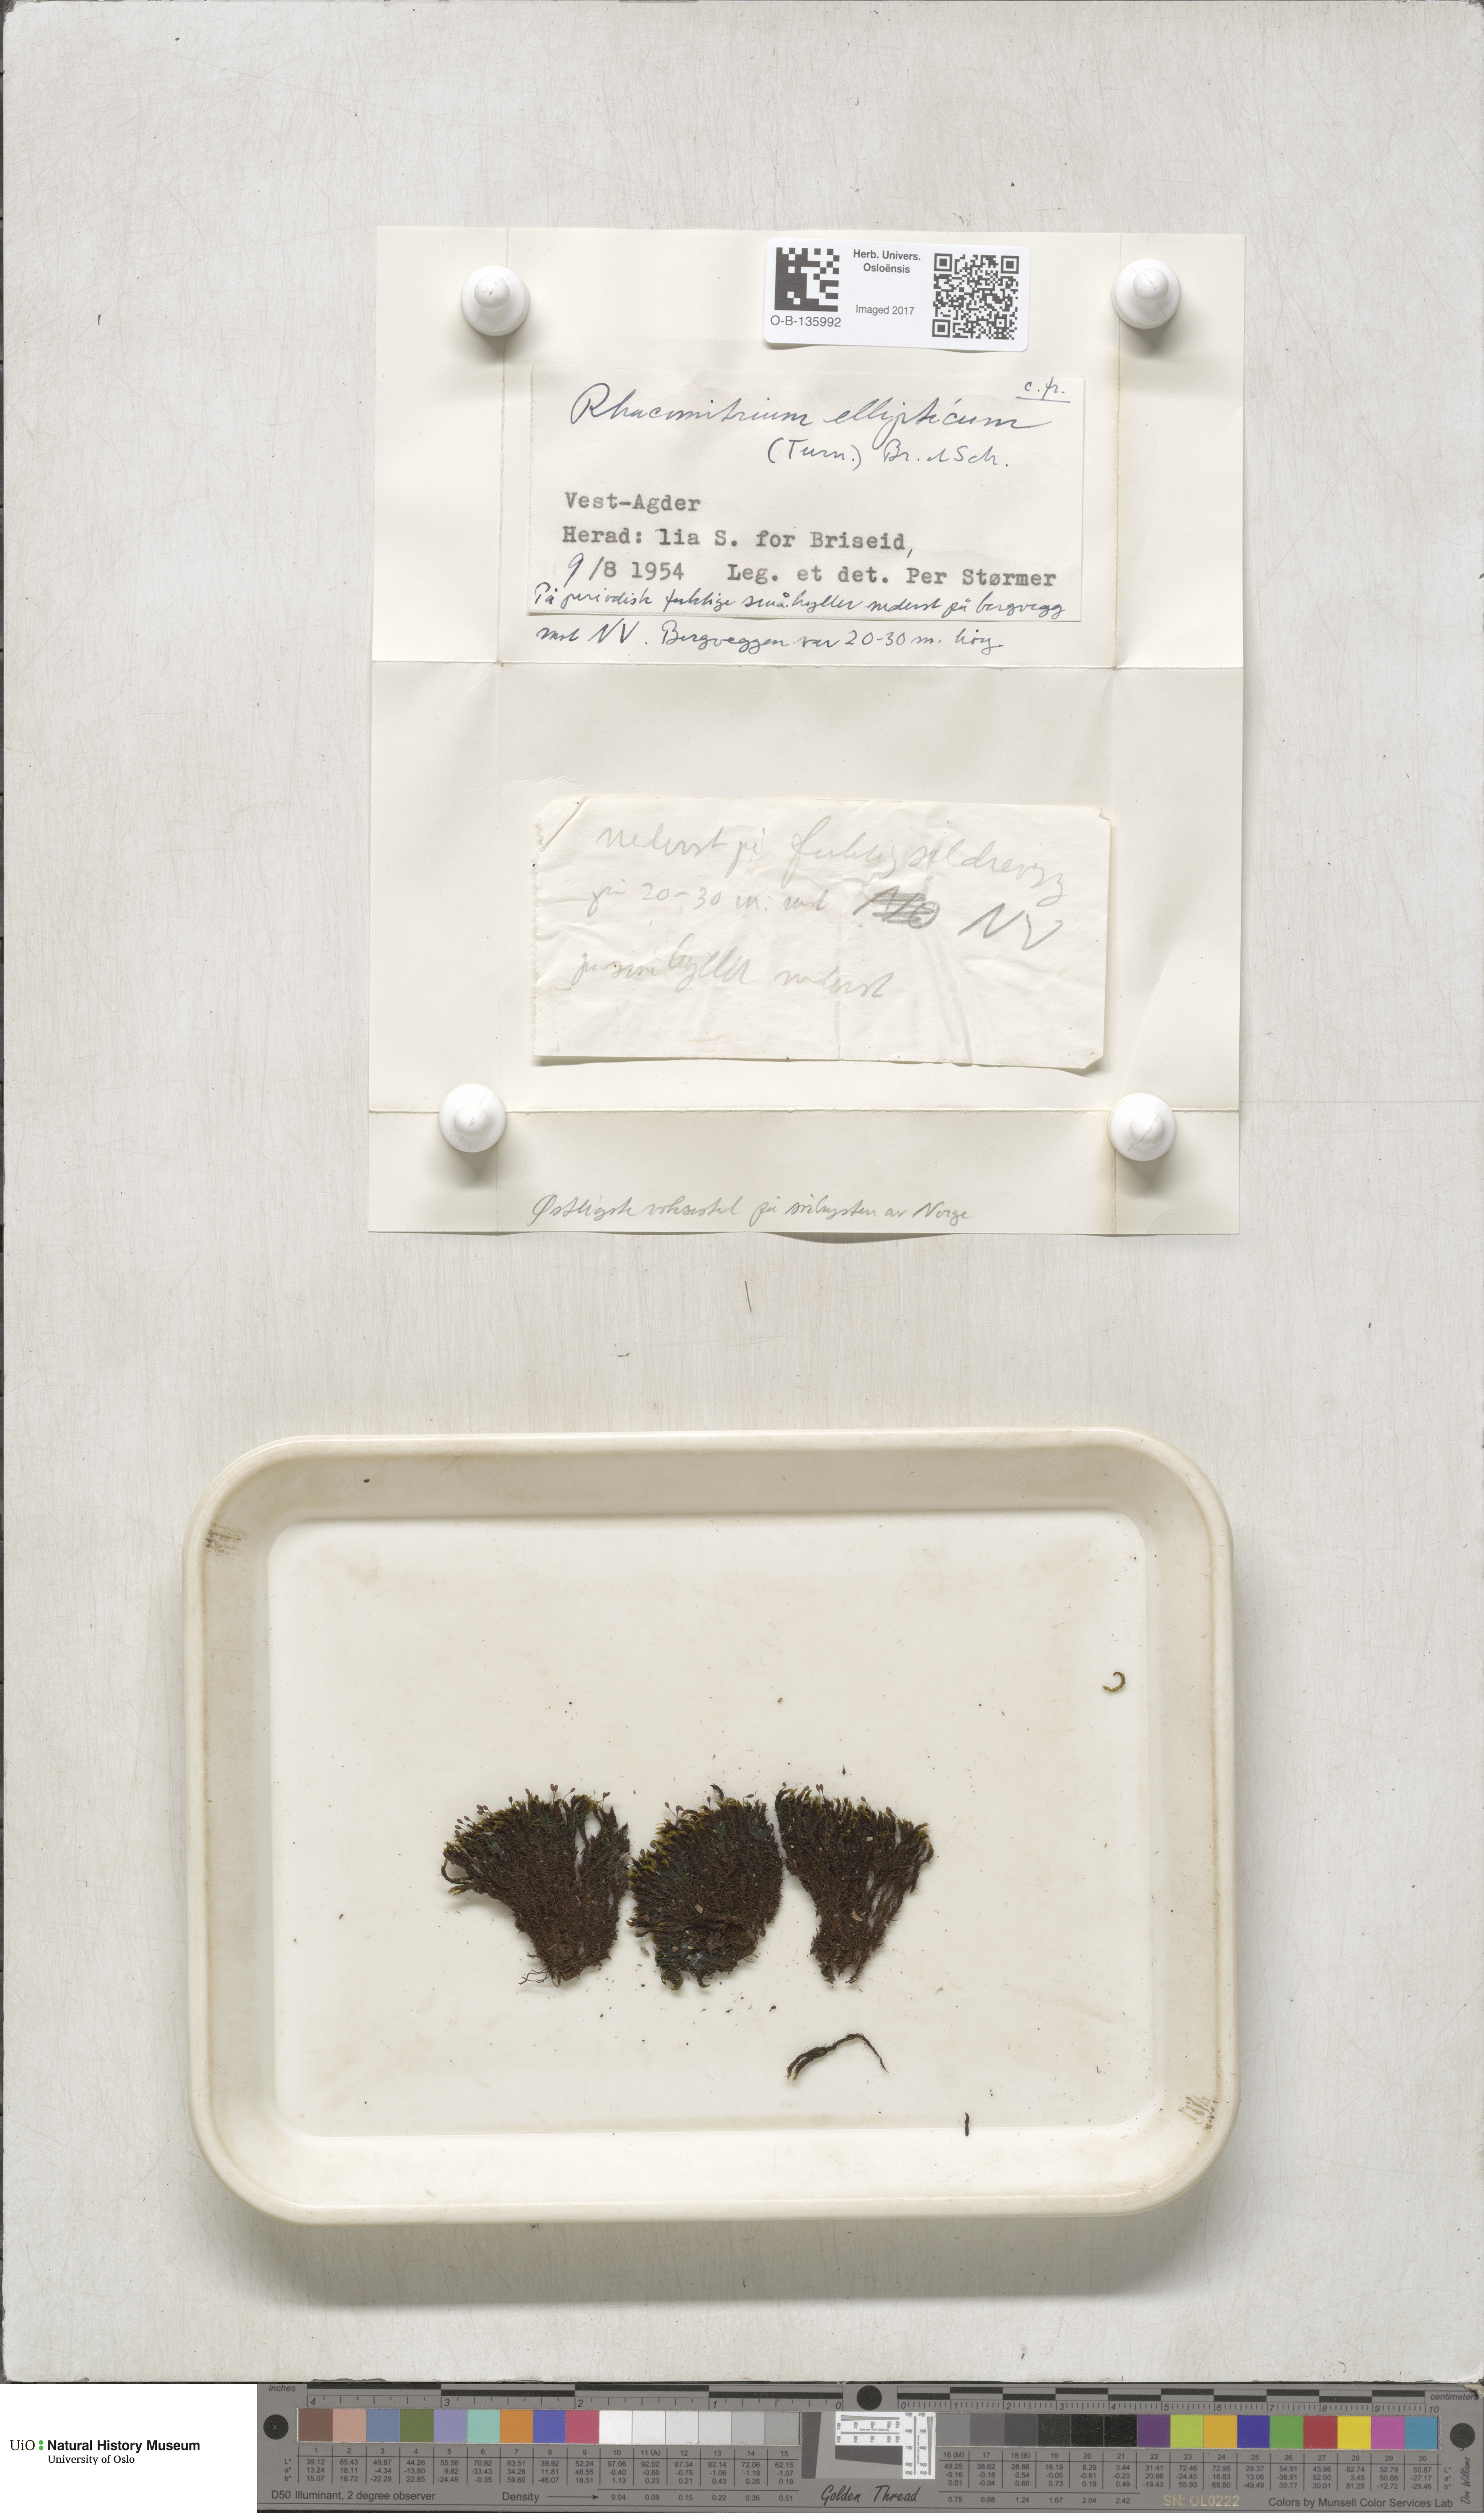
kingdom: Plantae
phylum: Bryophyta
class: Bryopsida
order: Grimmiales
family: Grimmiaceae
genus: Bucklandiella
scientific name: Bucklandiella elliptica
